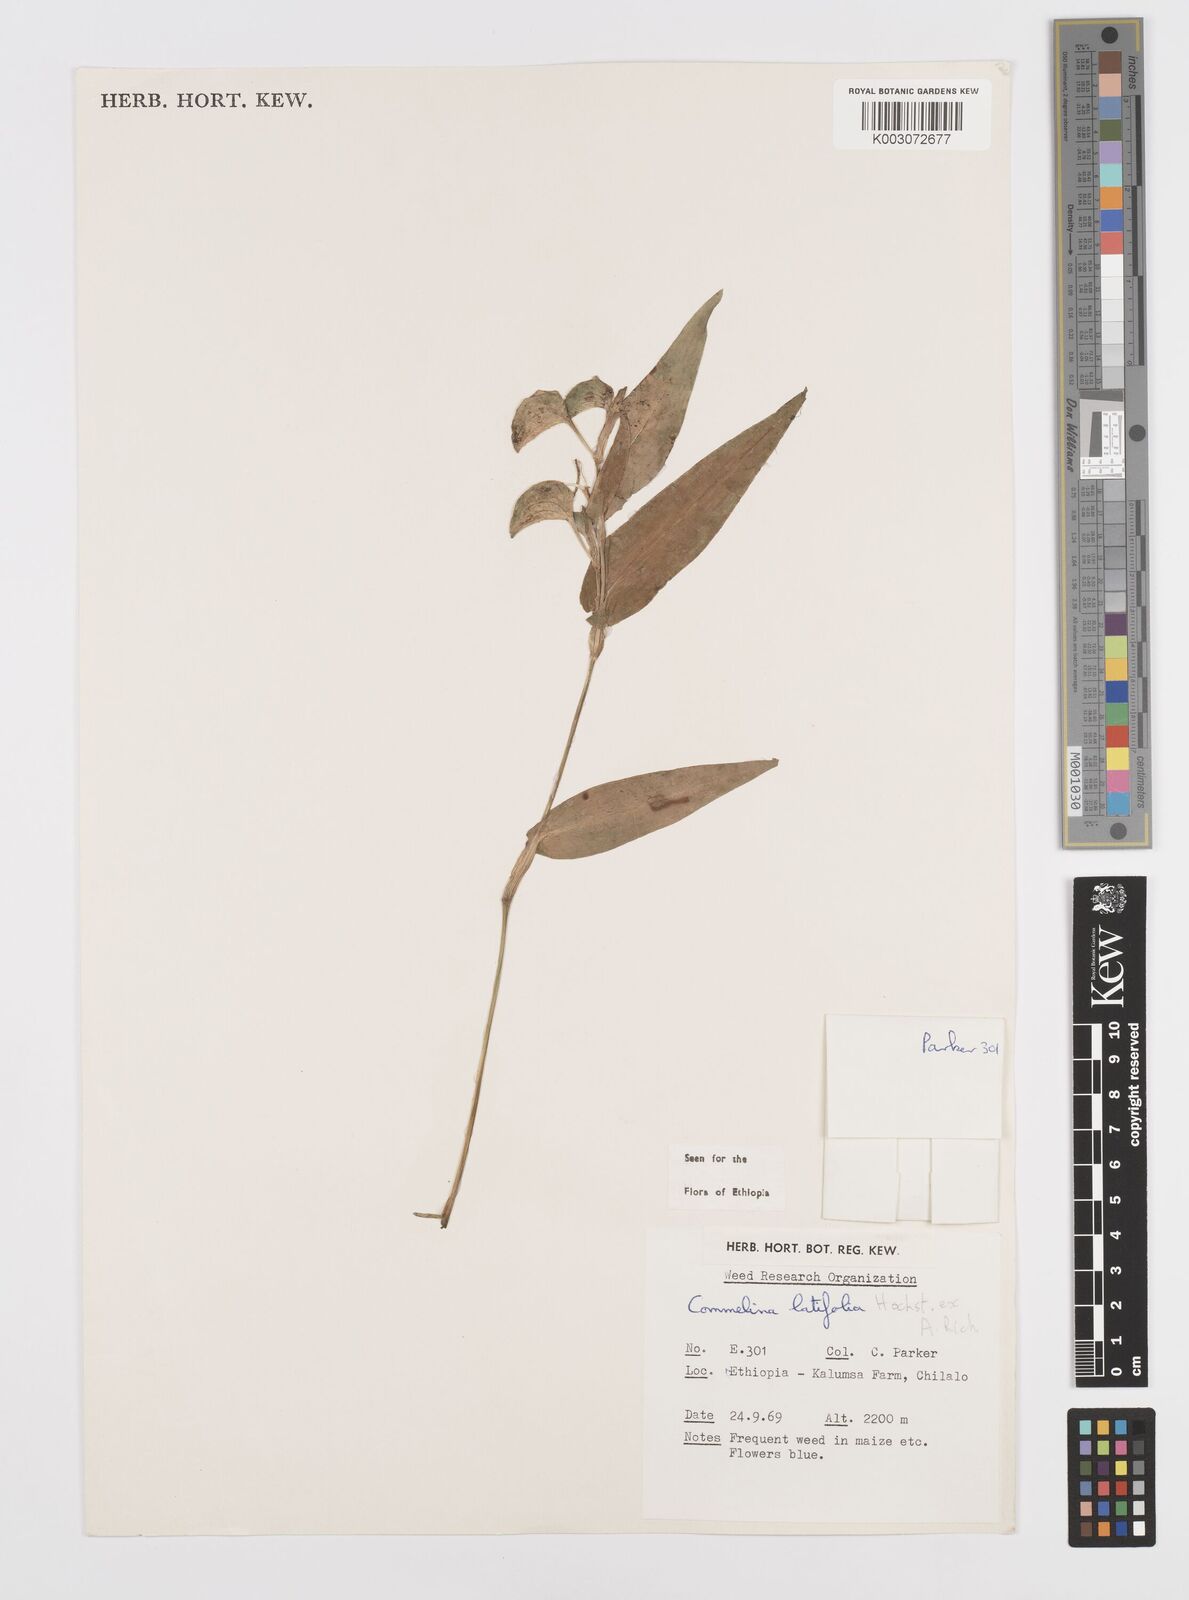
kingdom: Plantae
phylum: Tracheophyta
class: Liliopsida
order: Commelinales
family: Commelinaceae
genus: Commelina
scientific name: Commelina imberbis
